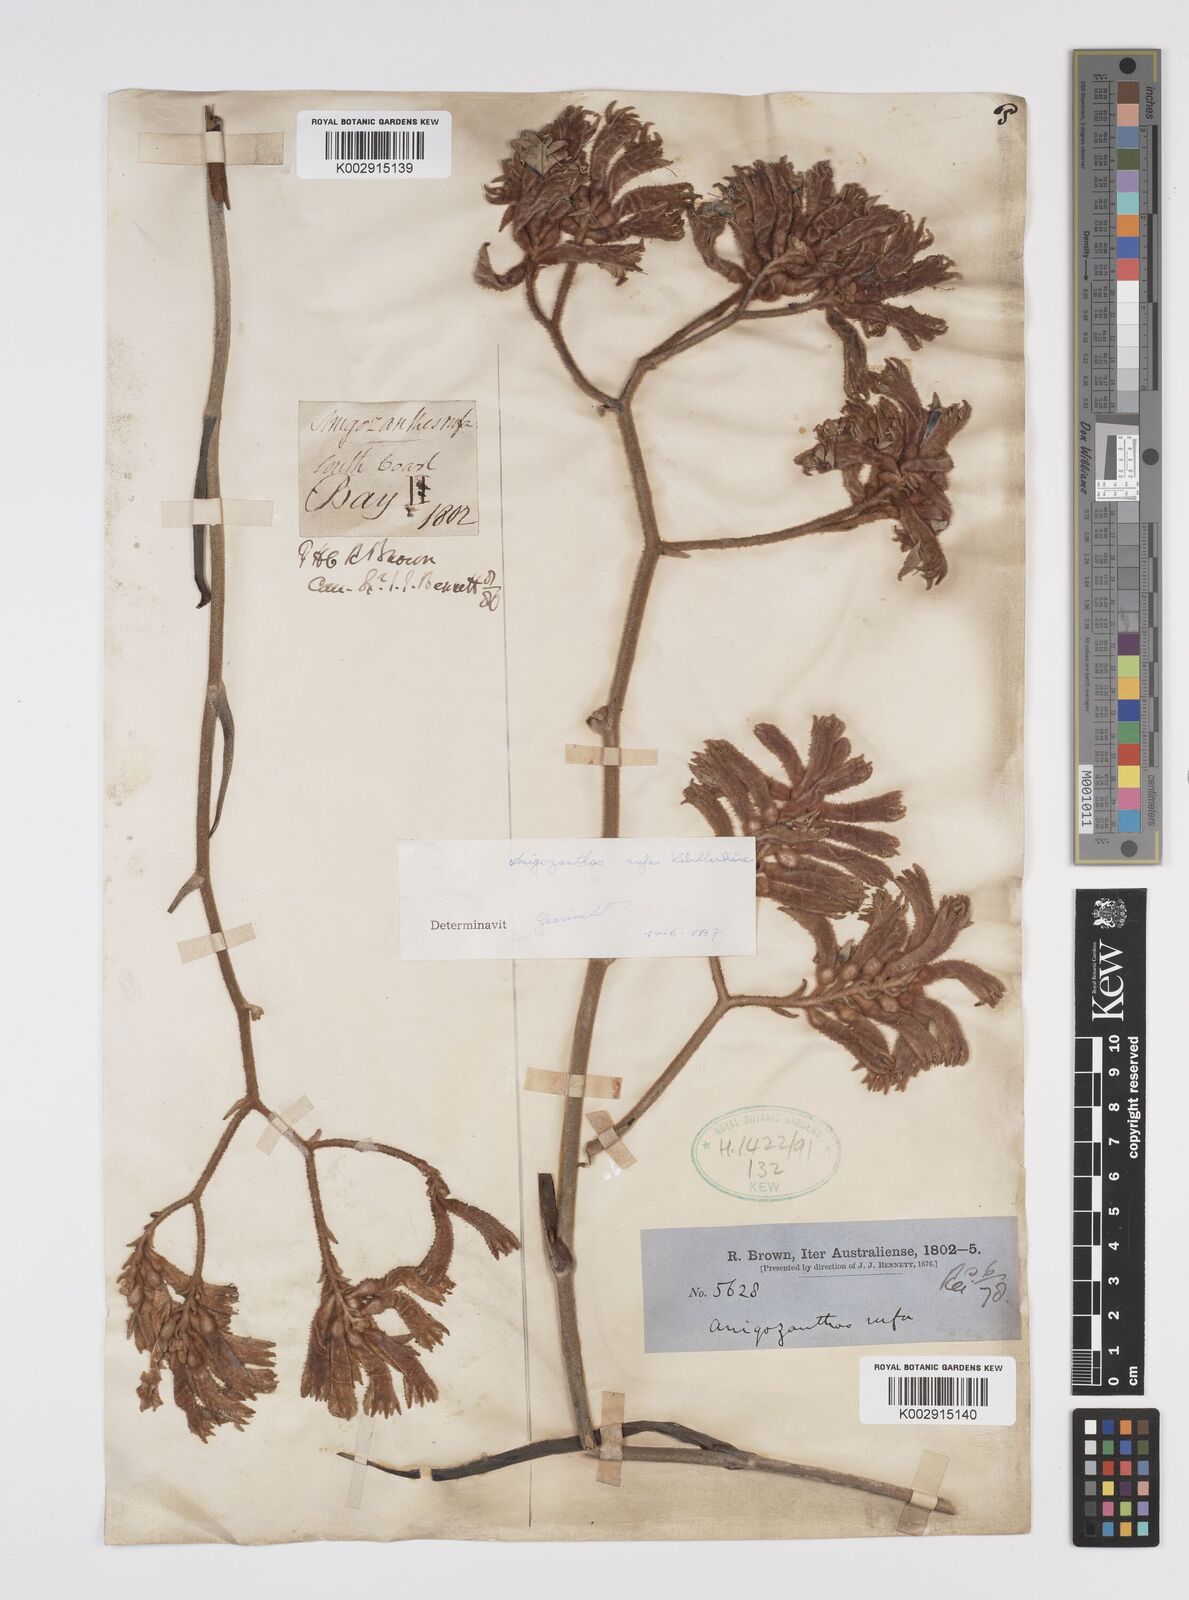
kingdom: Plantae
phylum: Tracheophyta
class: Liliopsida
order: Commelinales
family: Haemodoraceae
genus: Anigozanthos
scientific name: Anigozanthos rufus
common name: Red kangaroo-paw
